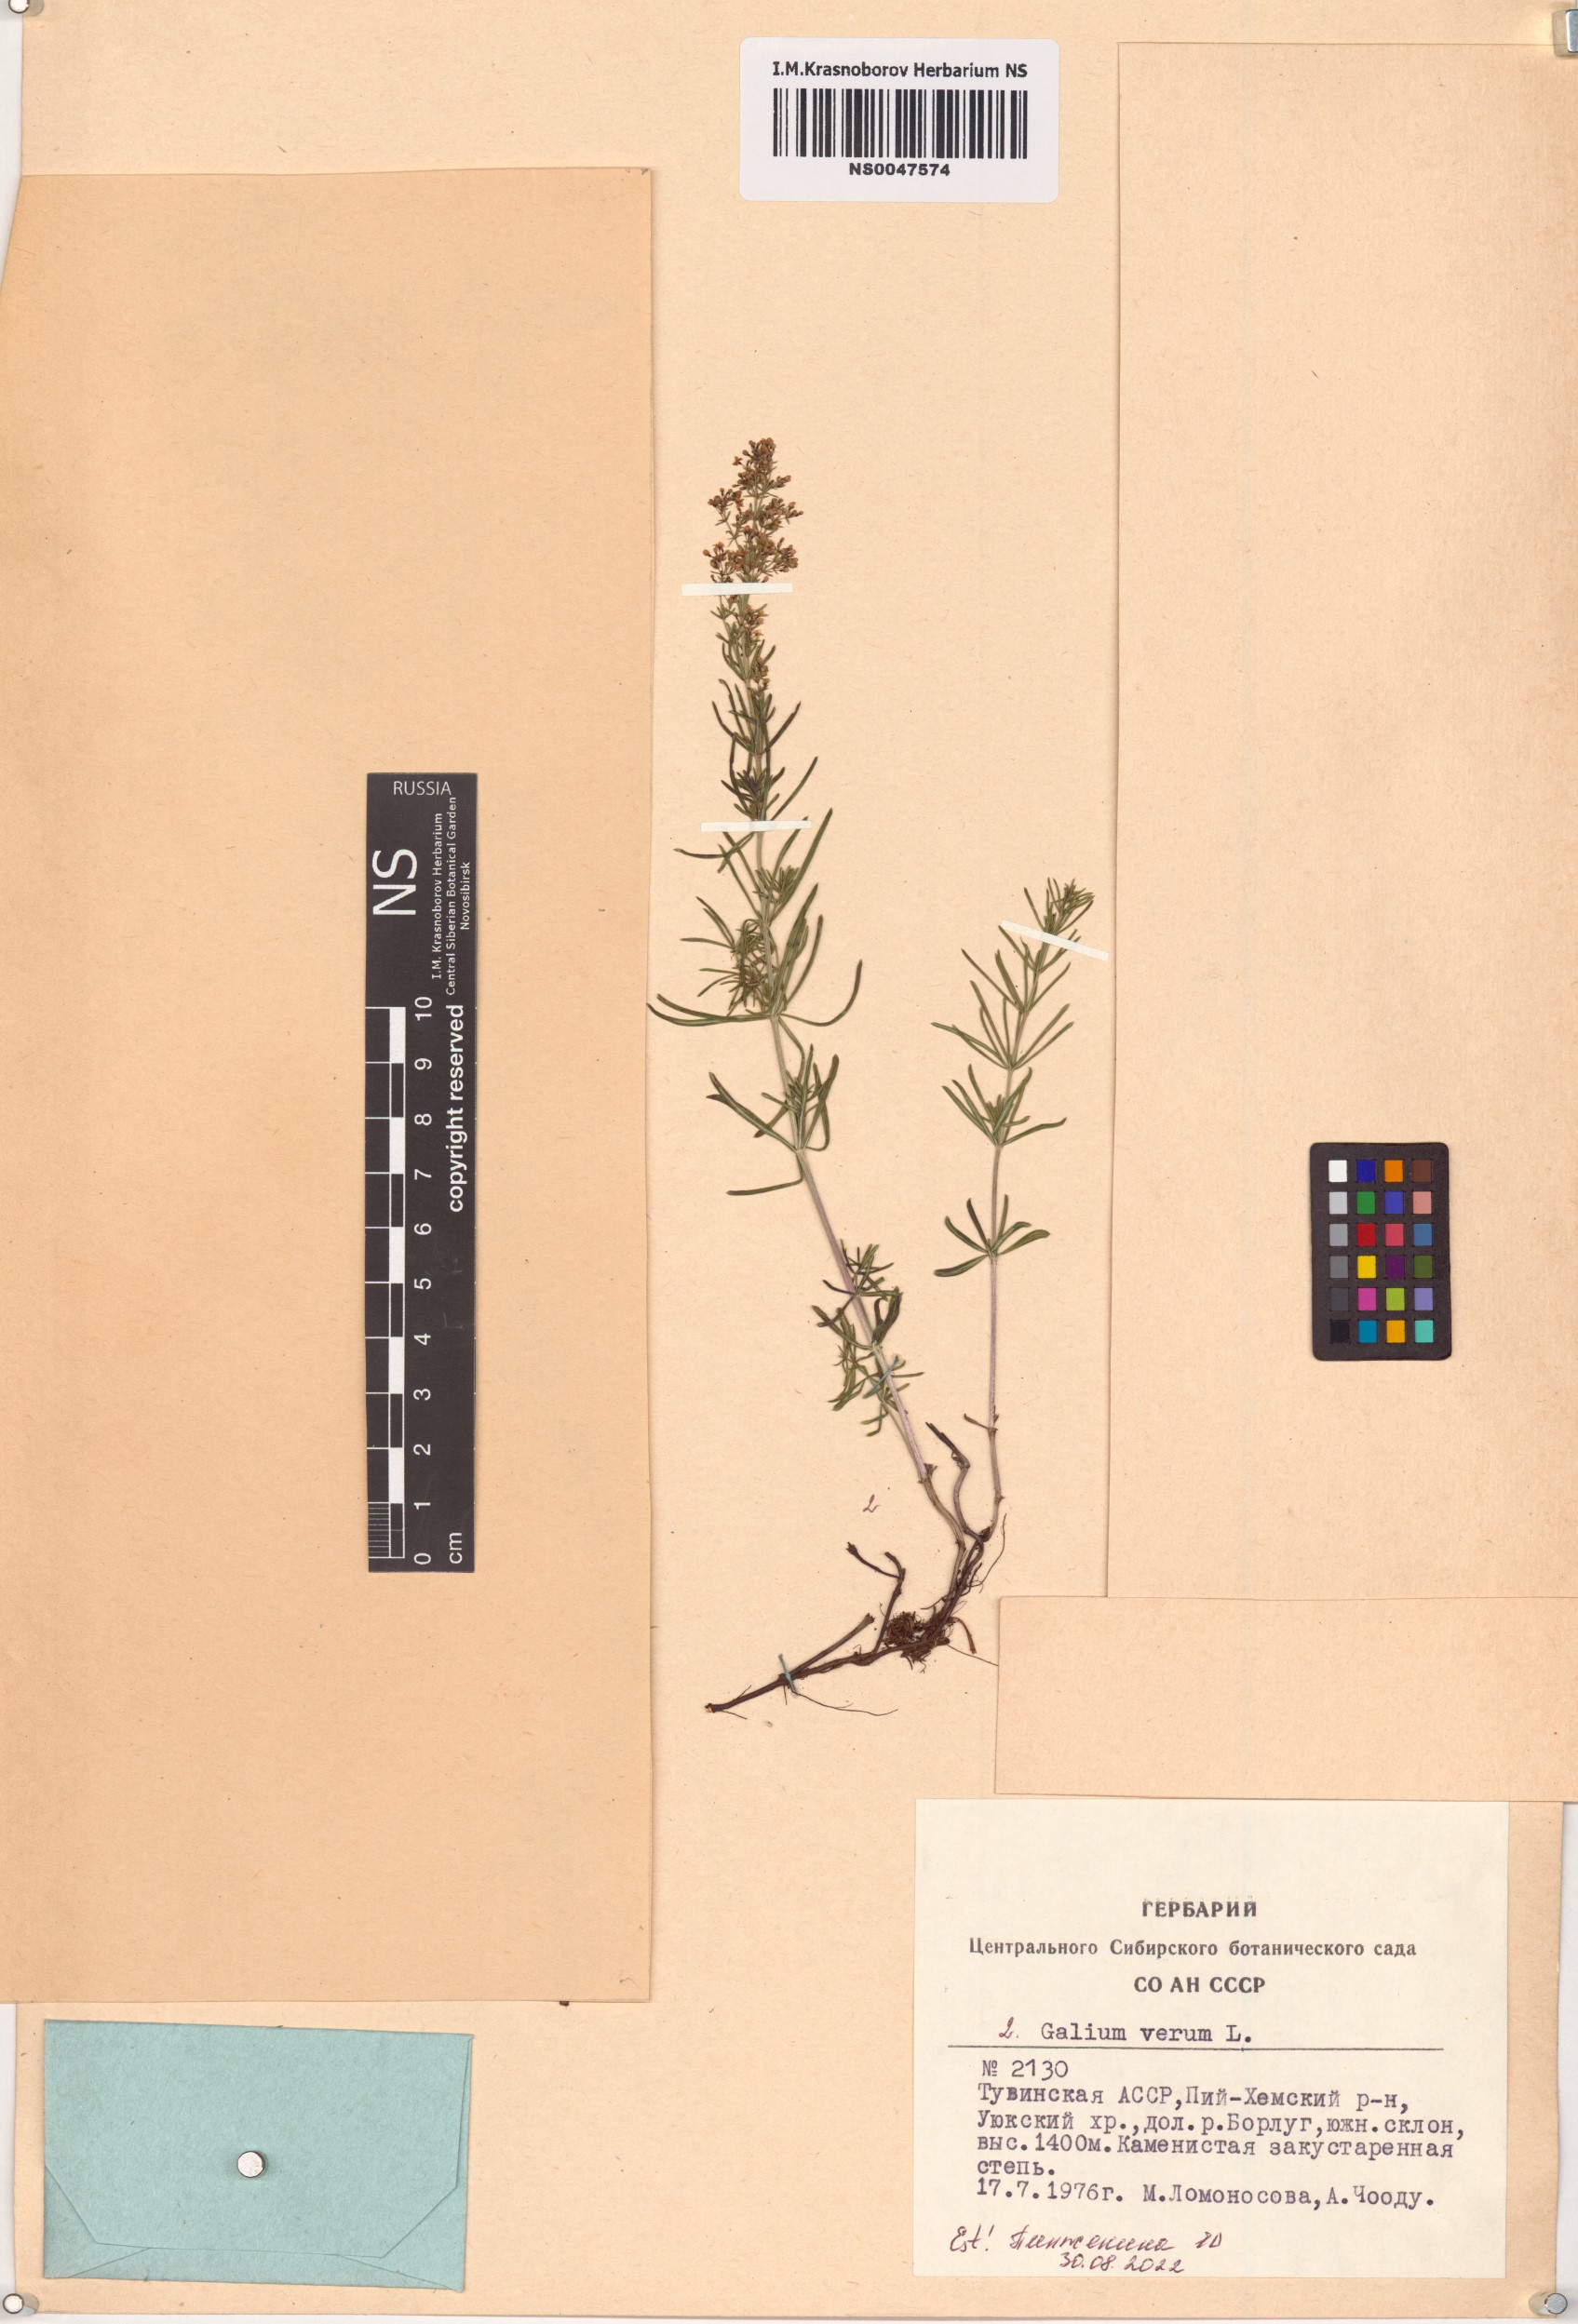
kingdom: Plantae
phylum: Tracheophyta
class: Magnoliopsida
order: Gentianales
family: Rubiaceae
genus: Galium
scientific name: Galium verum
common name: Lady's bedstraw
